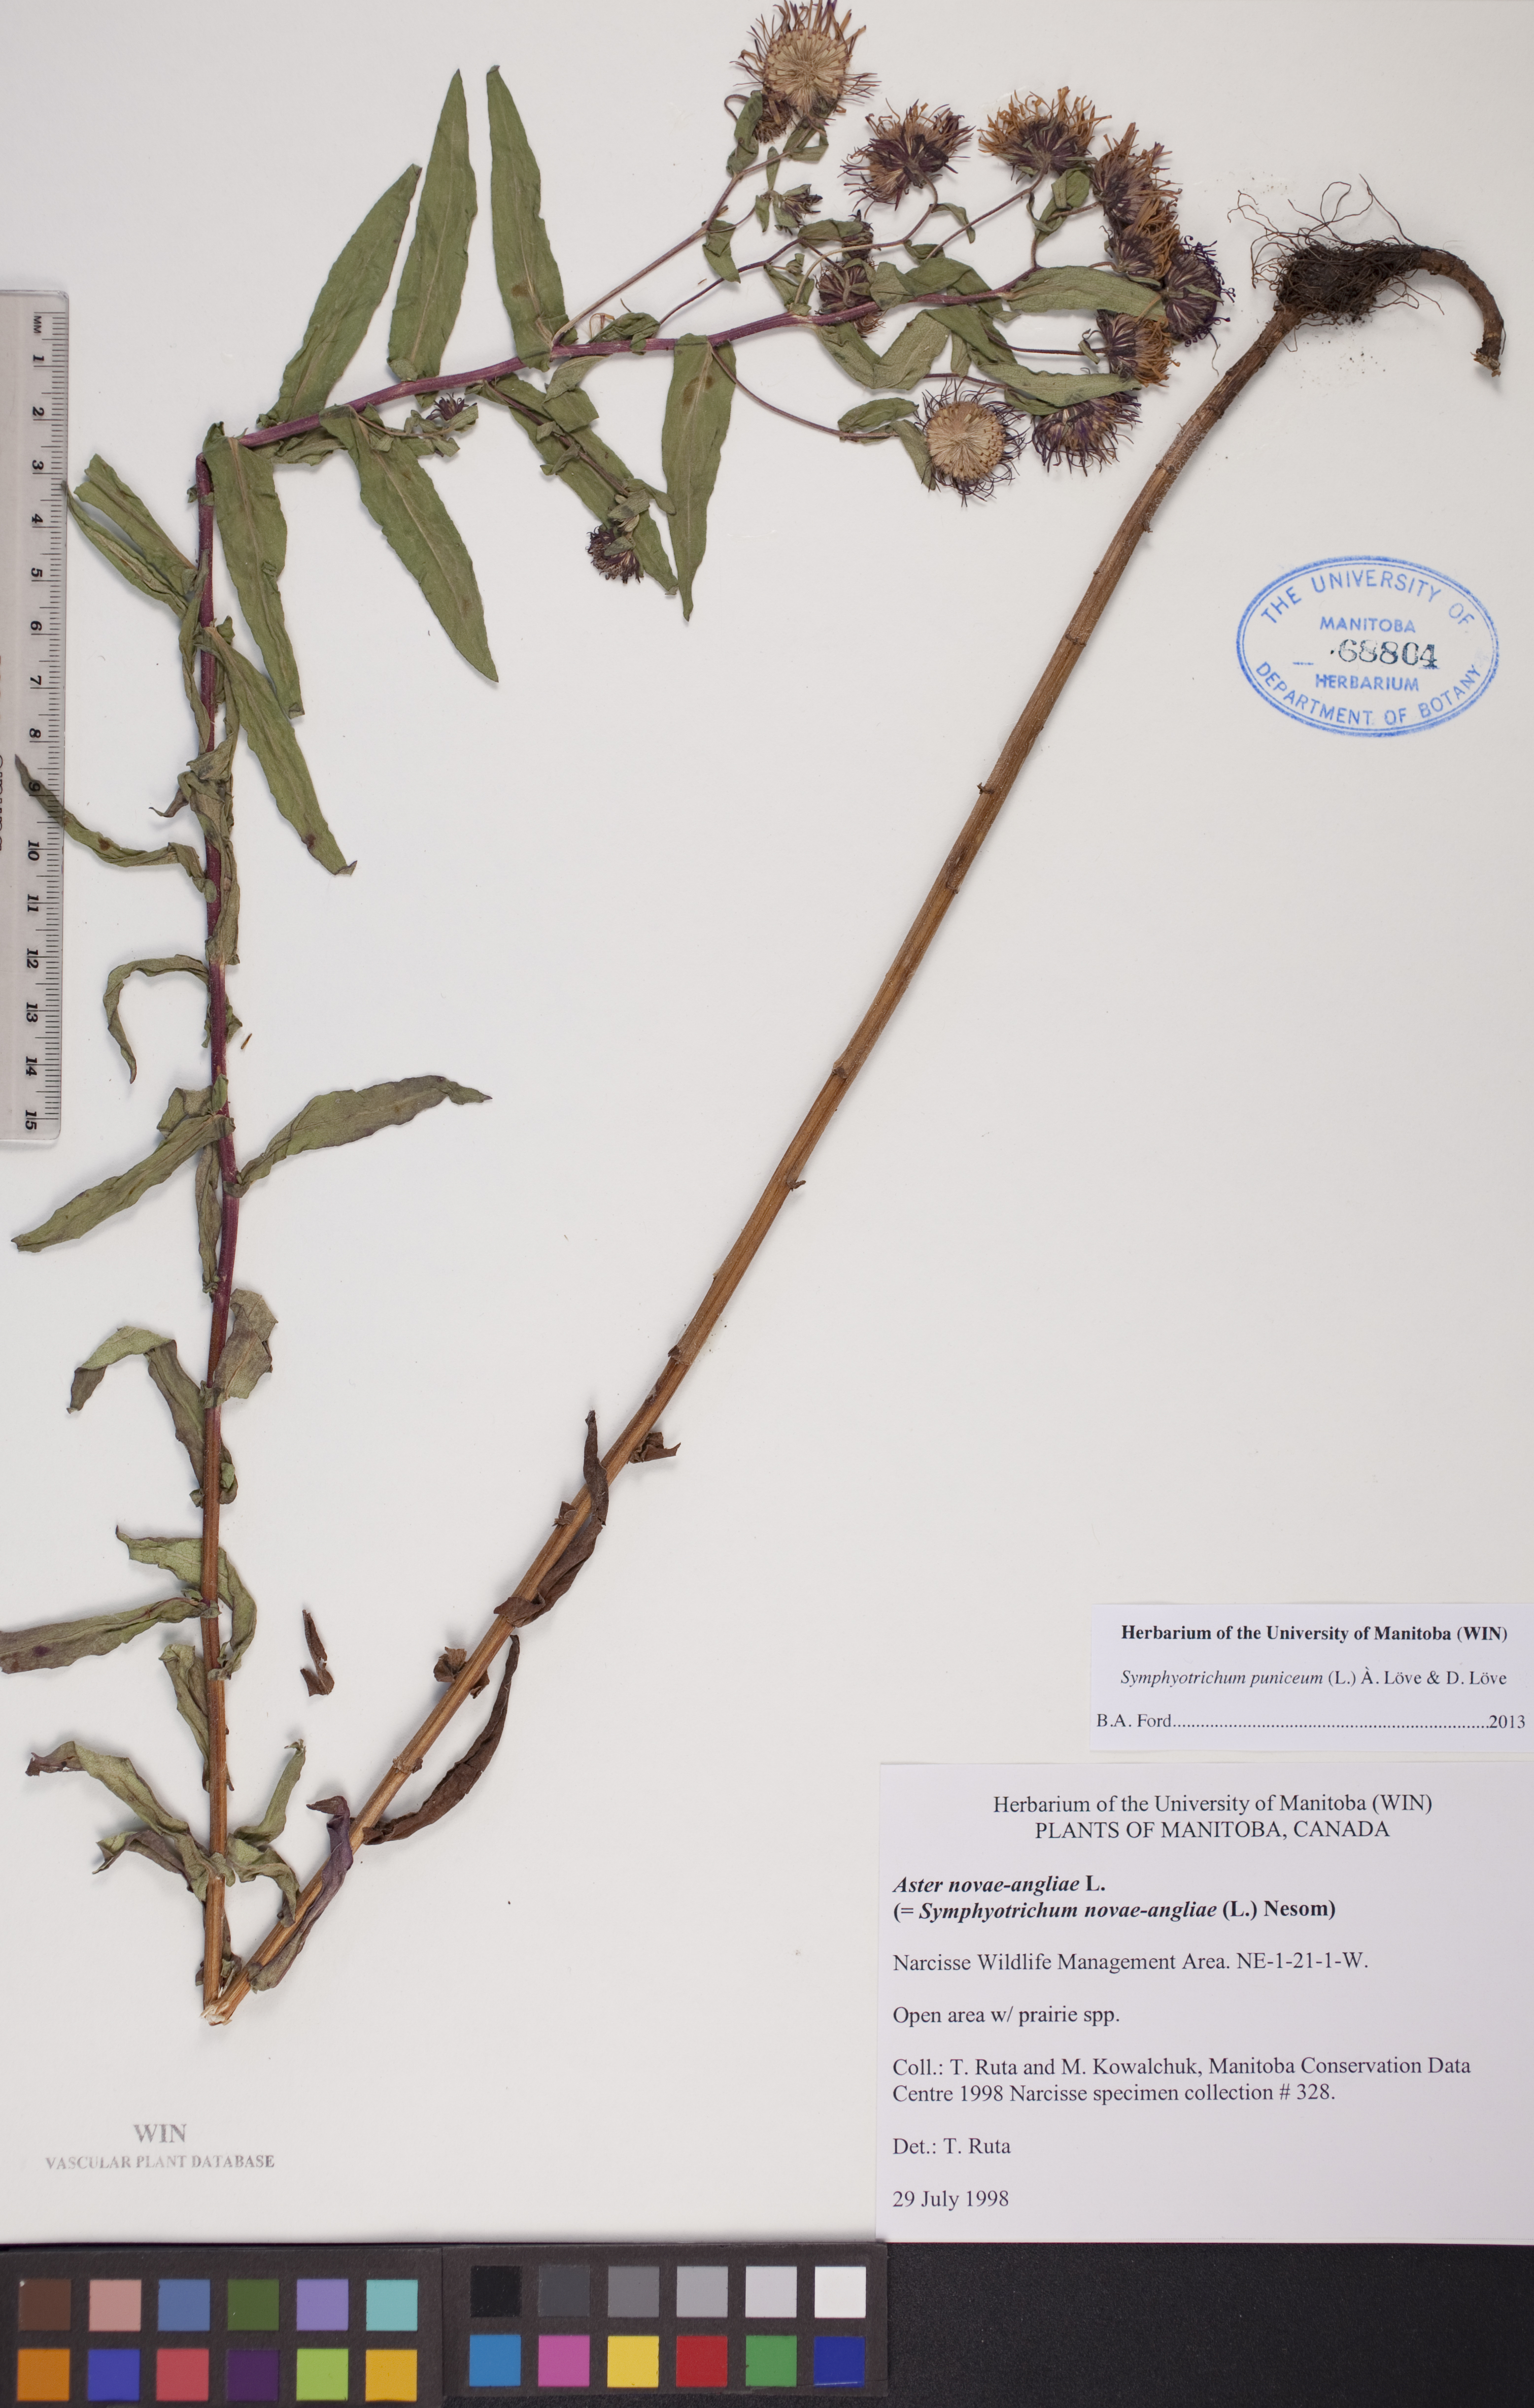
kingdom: Plantae
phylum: Tracheophyta
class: Magnoliopsida
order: Asterales
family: Asteraceae
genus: Symphyotrichum
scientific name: Symphyotrichum puniceum
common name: Bog aster
